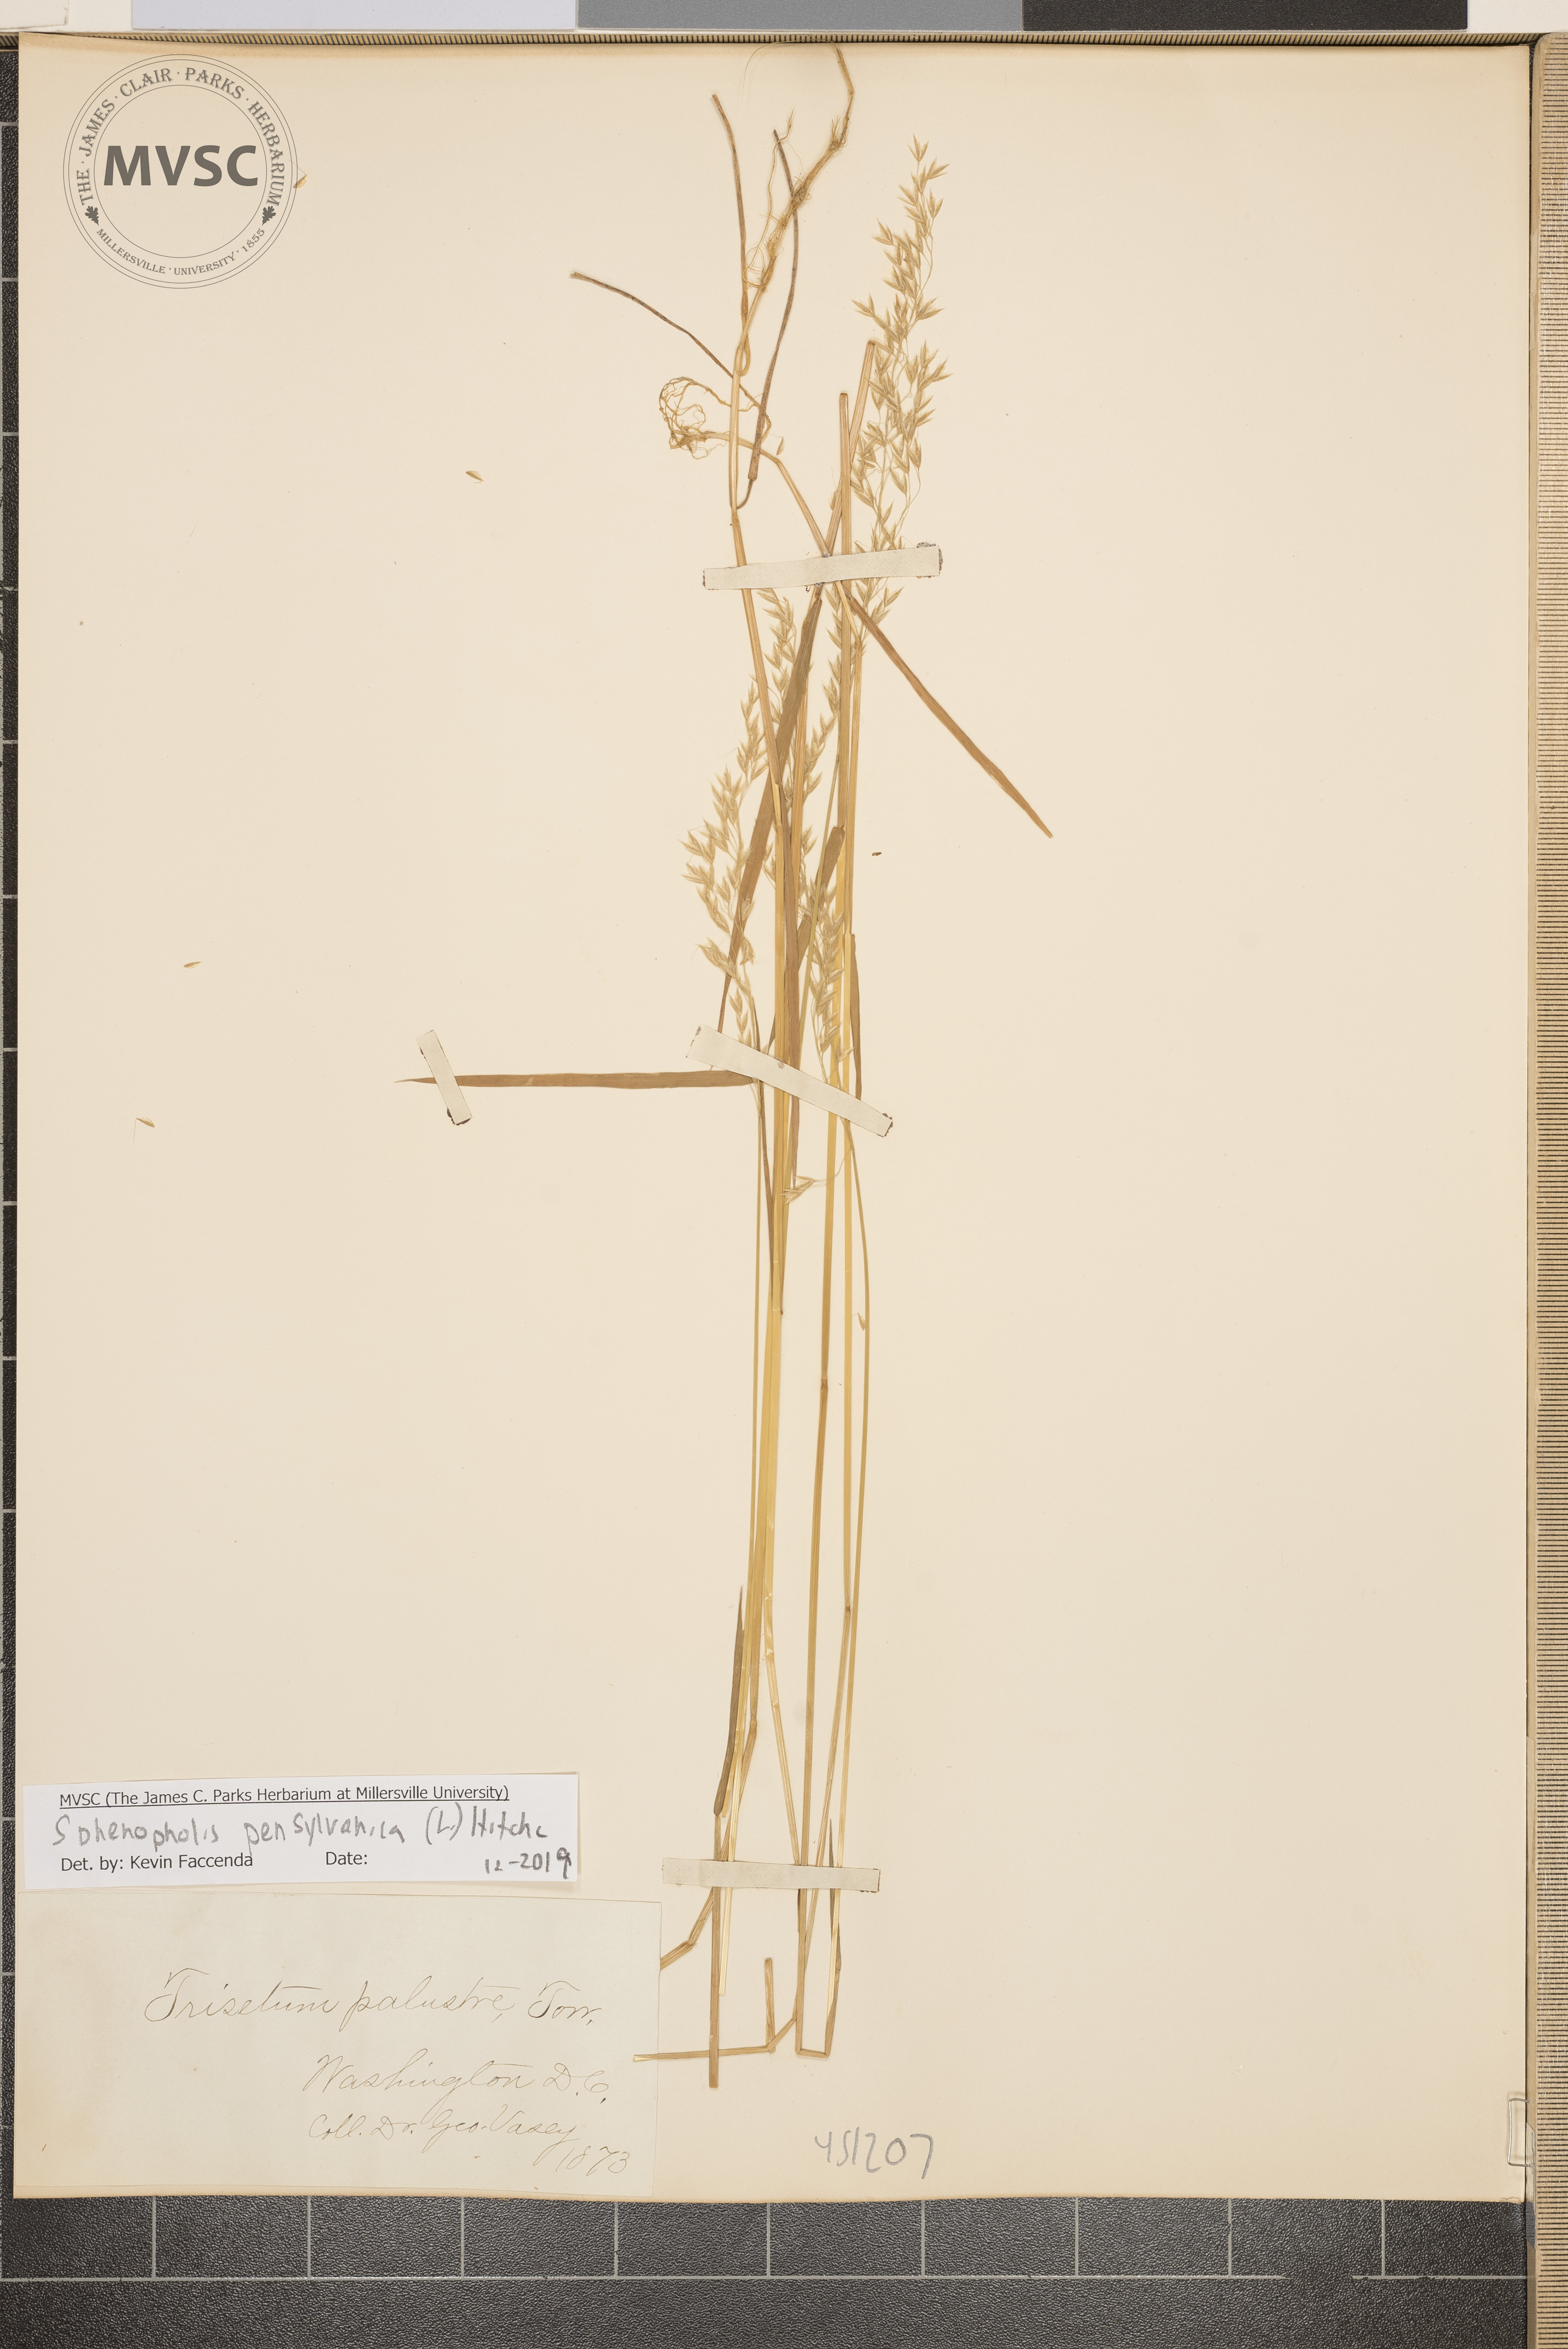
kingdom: Plantae
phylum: Tracheophyta
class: Liliopsida
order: Poales
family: Poaceae
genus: Sphenopholis
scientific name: Sphenopholis pensylvanica
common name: Swamp oats
